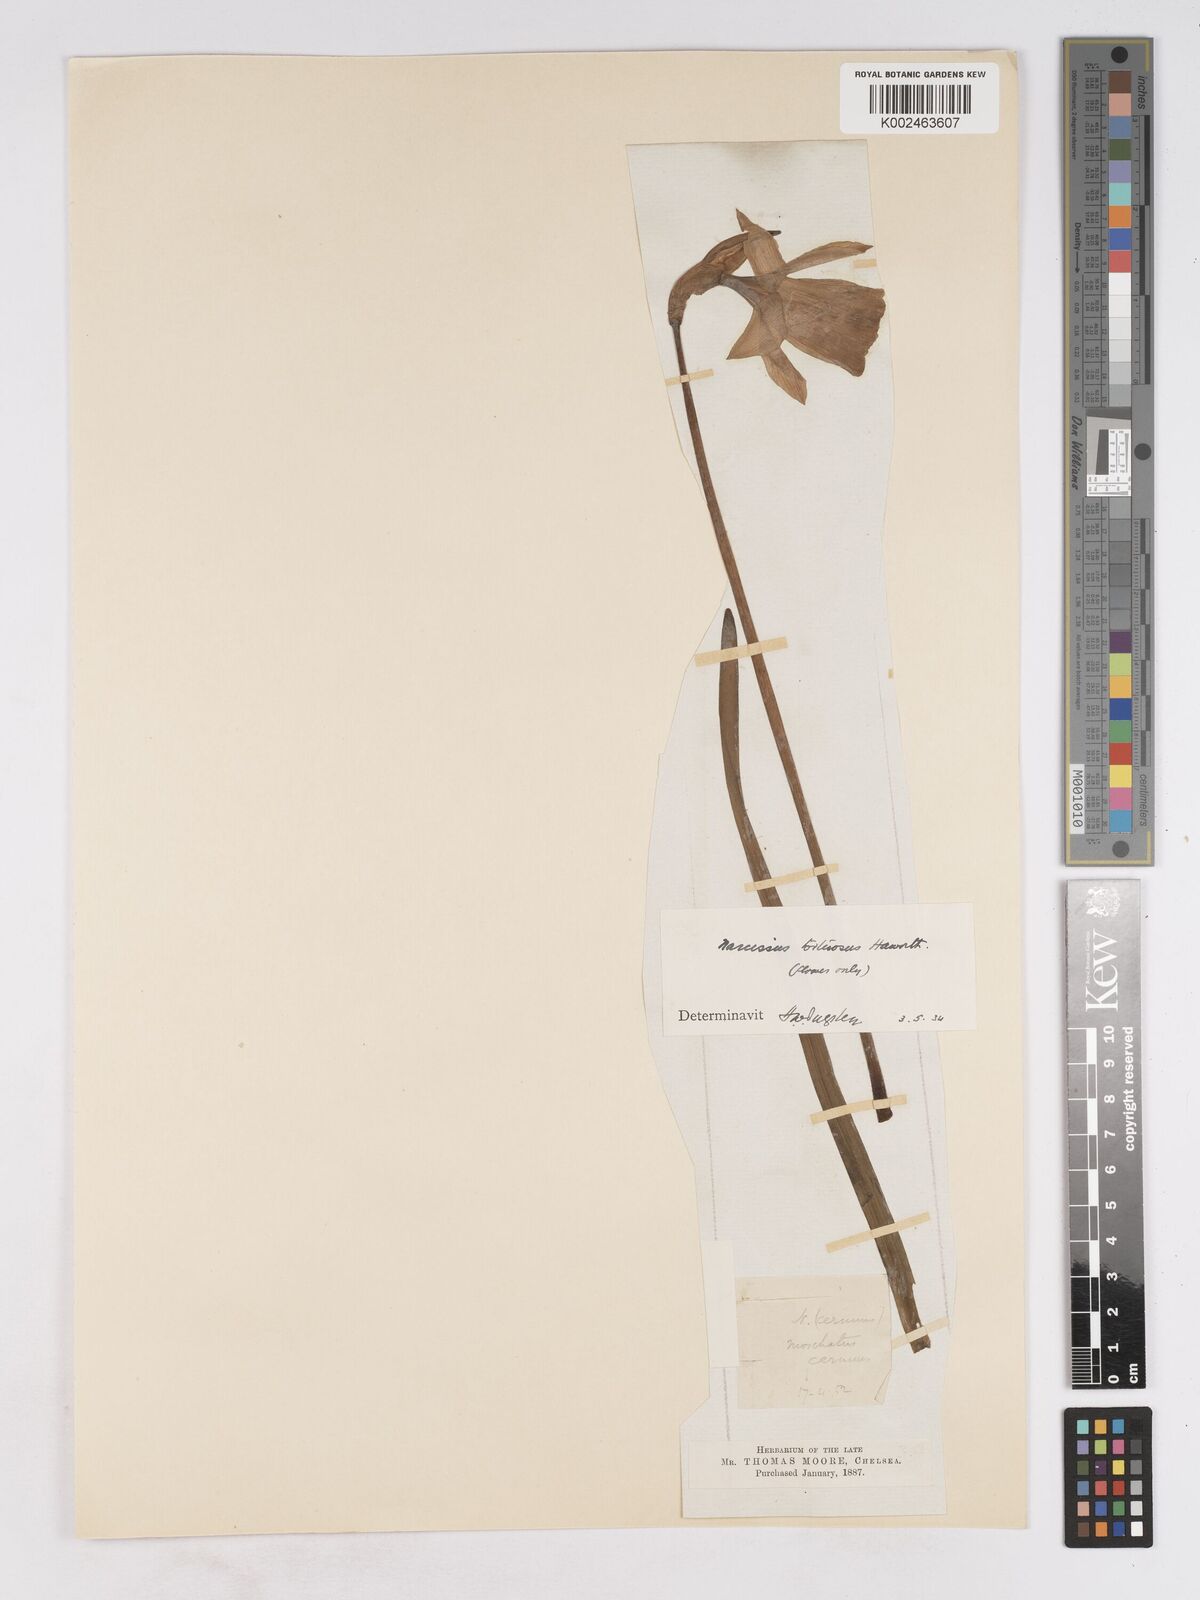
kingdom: Plantae
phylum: Tracheophyta
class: Liliopsida
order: Asparagales
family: Amaryllidaceae
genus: Narcissus
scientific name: Narcissus moschatus
